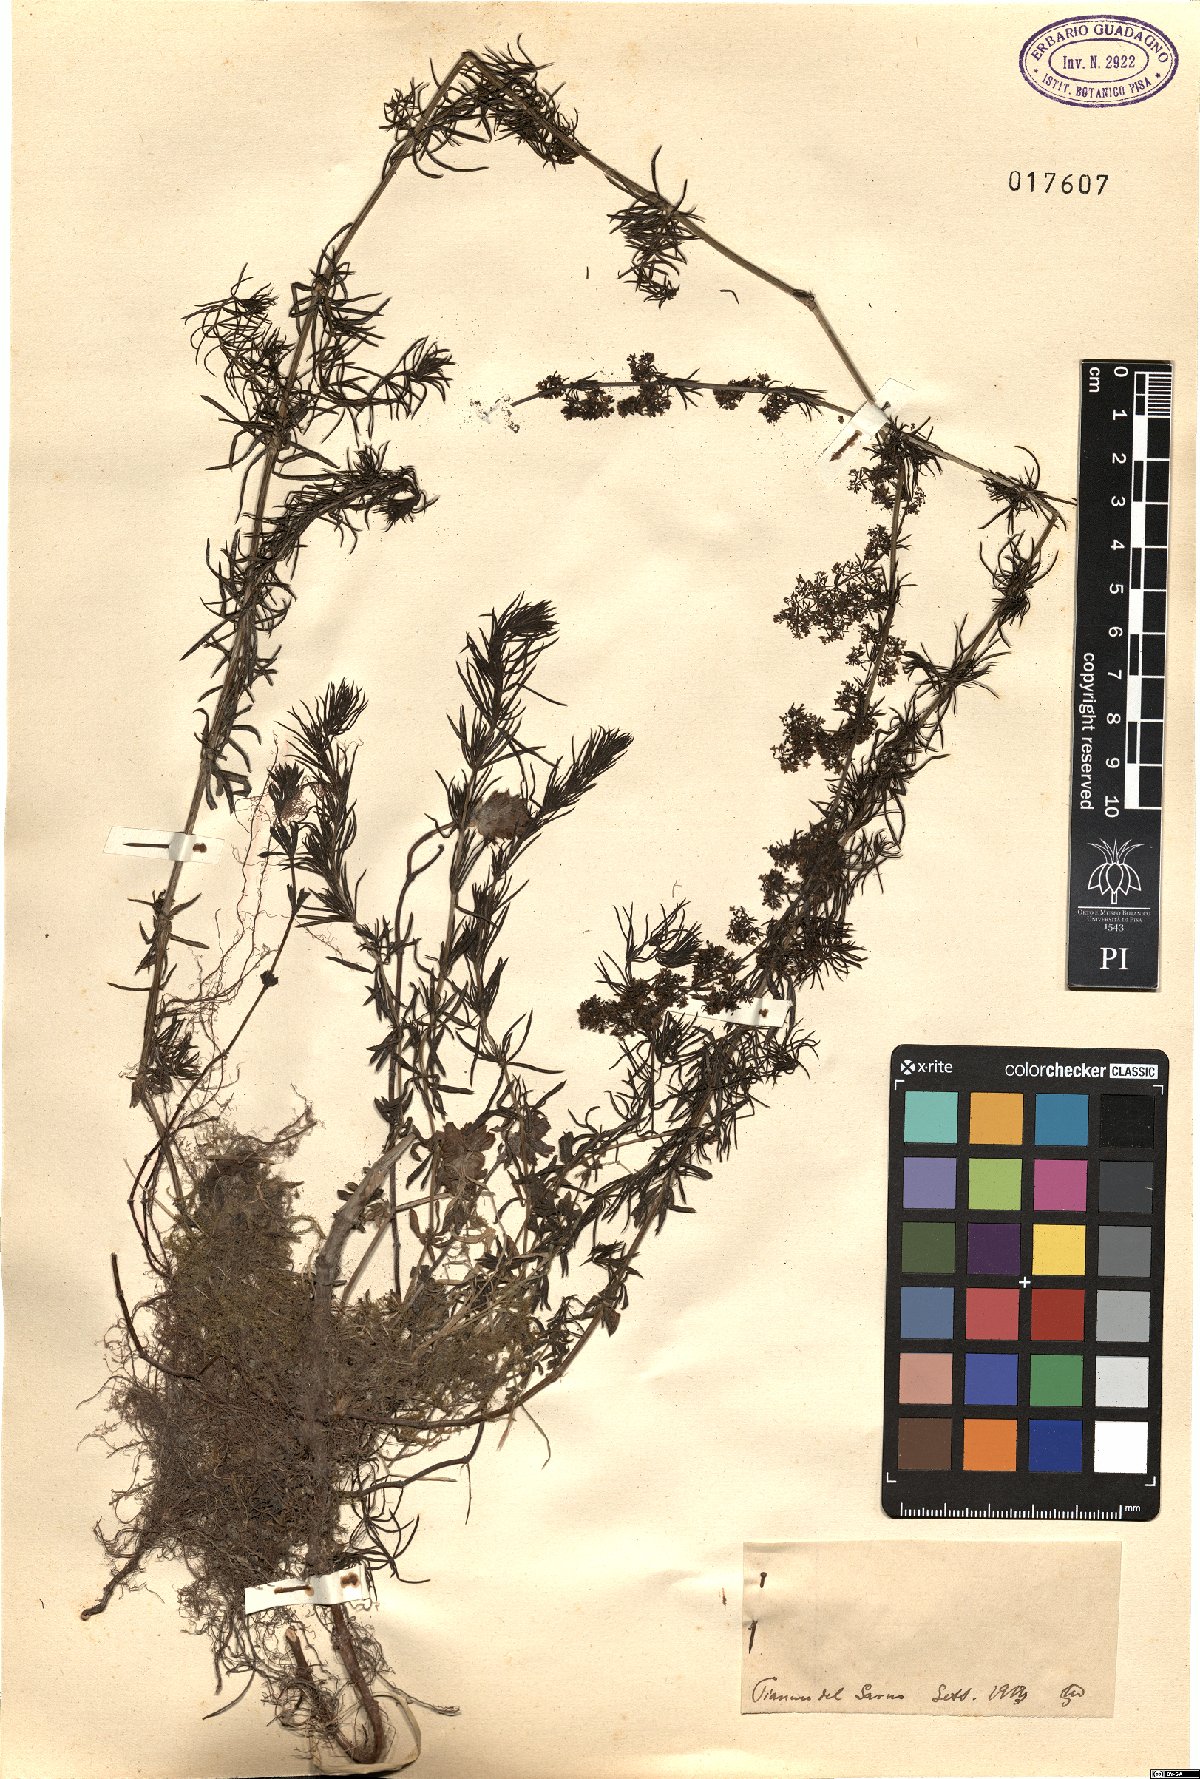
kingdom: Plantae
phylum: Tracheophyta
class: Magnoliopsida
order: Gentianales
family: Rubiaceae
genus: Galium
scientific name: Galium
